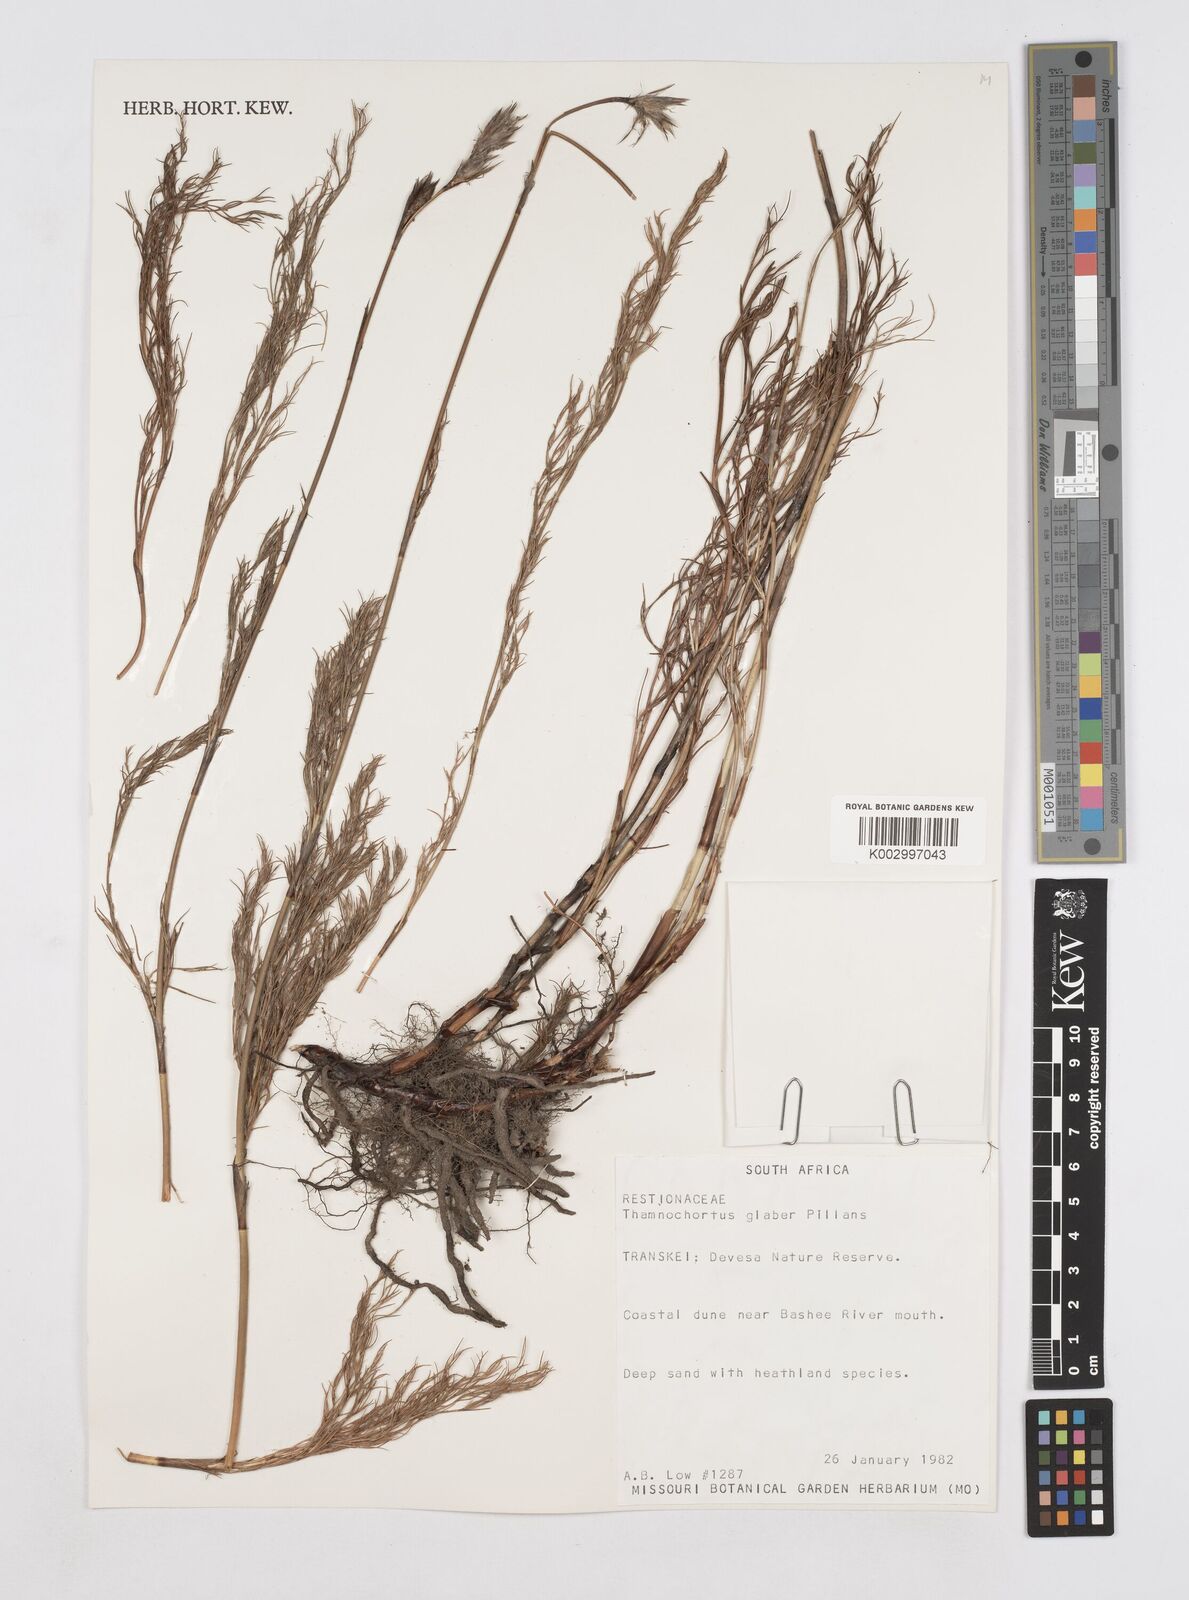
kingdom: Plantae
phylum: Tracheophyta
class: Liliopsida
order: Poales
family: Restionaceae
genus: Thamnochortus
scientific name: Thamnochortus glaber
